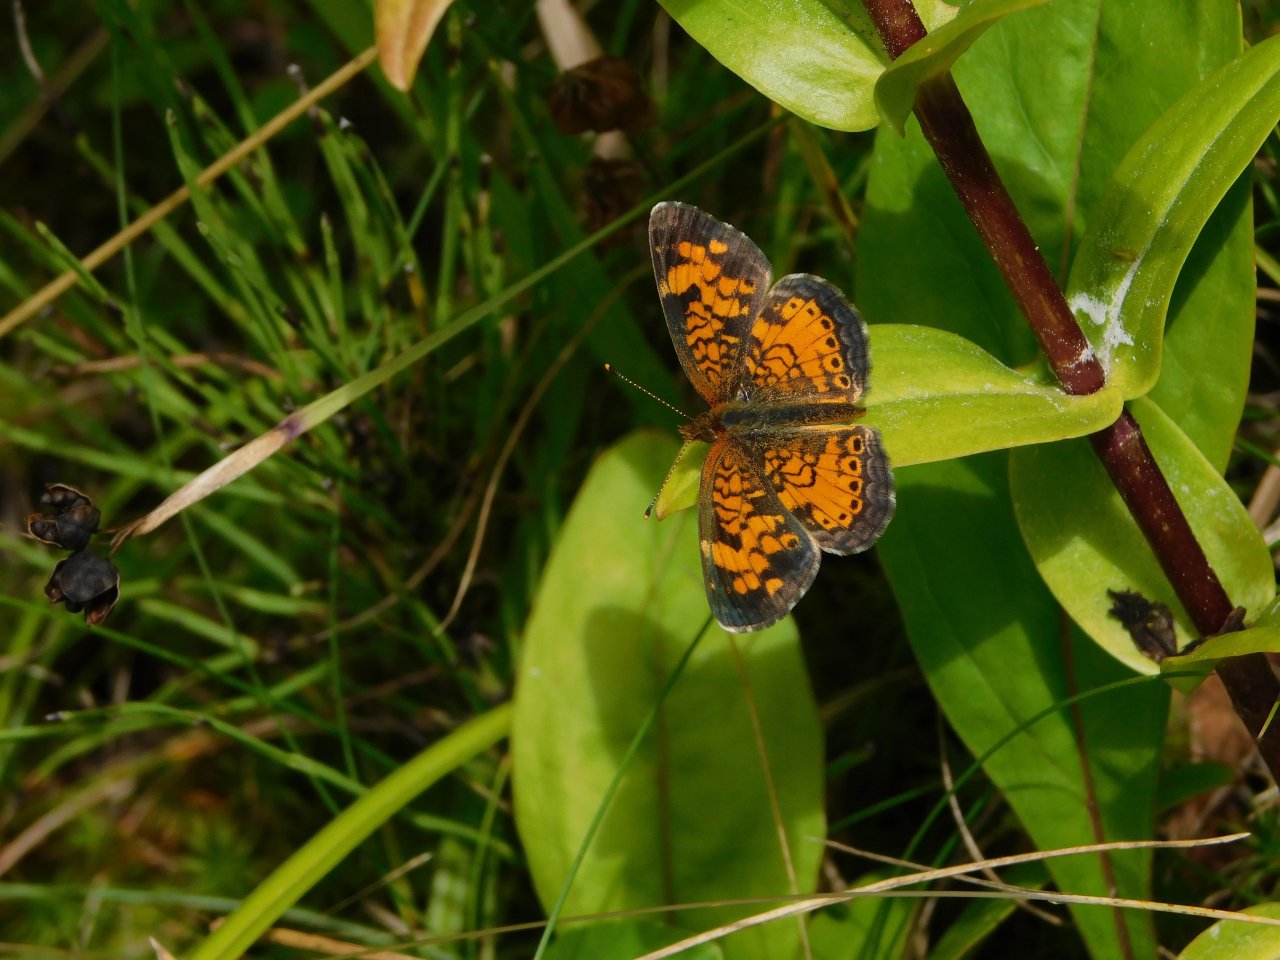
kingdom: Animalia
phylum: Arthropoda
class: Insecta
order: Lepidoptera
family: Nymphalidae
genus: Phyciodes
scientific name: Phyciodes tharos
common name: Pearl Crescent
